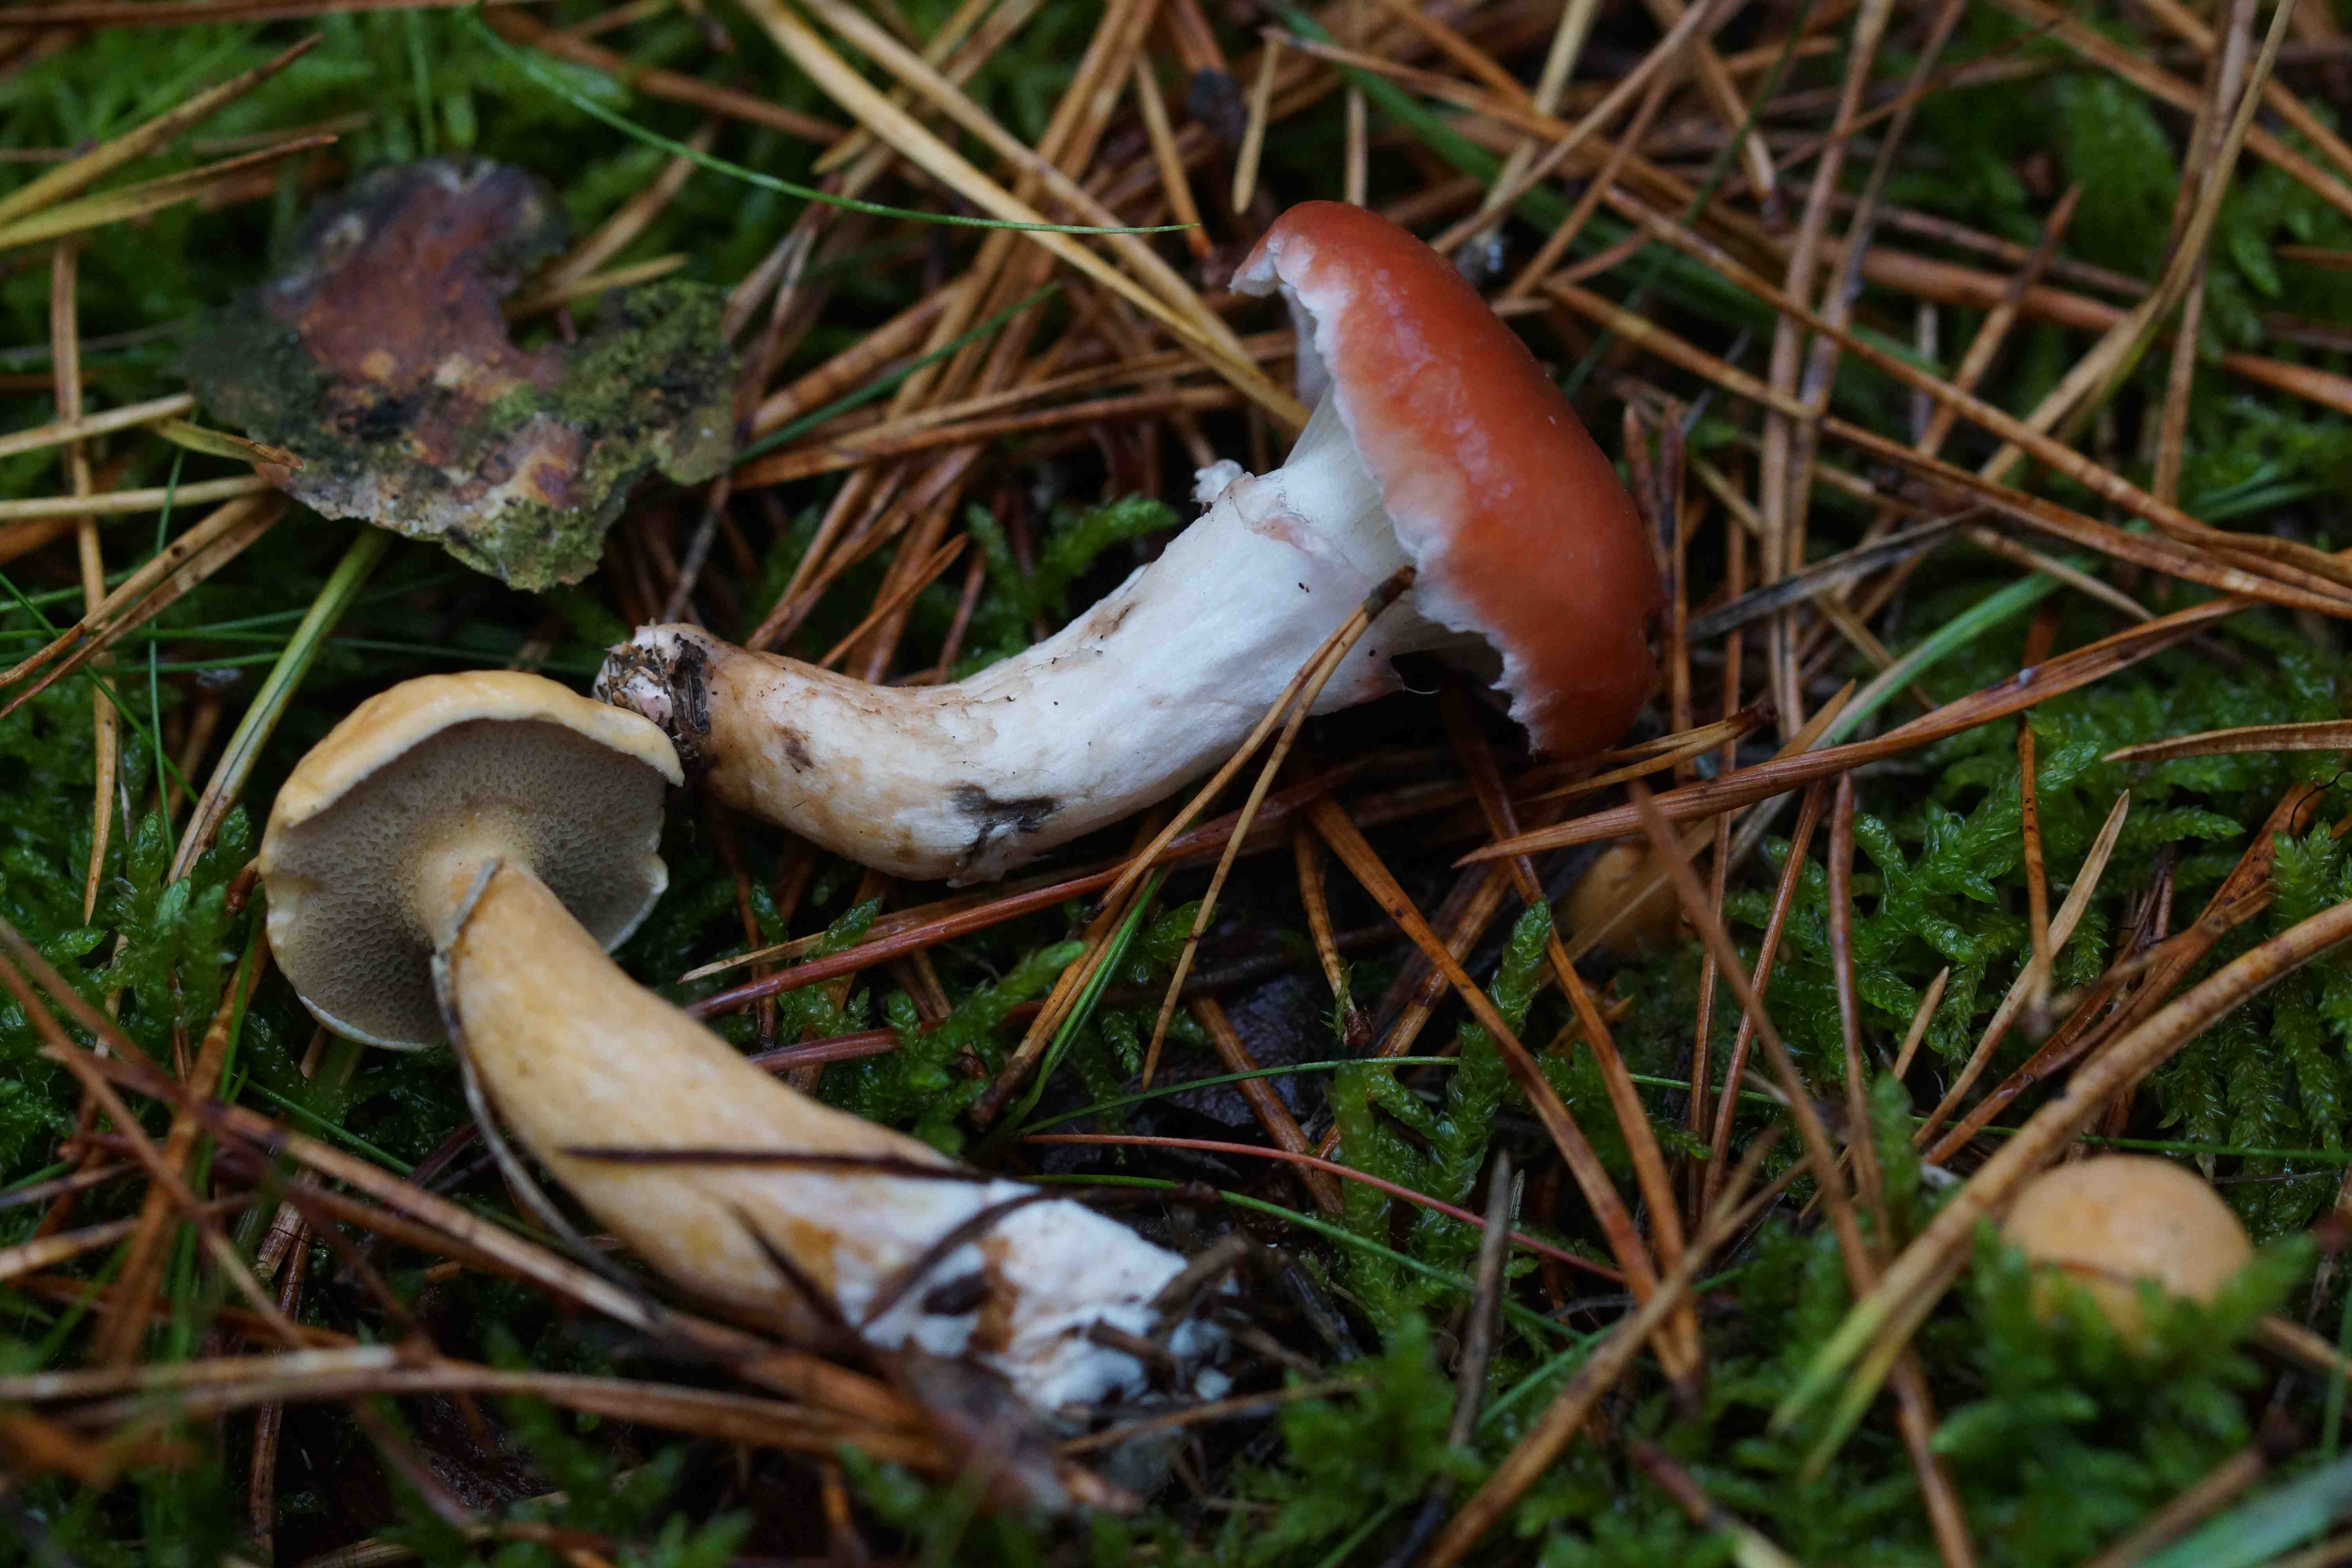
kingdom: Fungi
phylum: Basidiomycota
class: Agaricomycetes
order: Boletales
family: Gomphidiaceae
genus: Gomphidius
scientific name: Gomphidius roseus
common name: rosenrød slimslør
